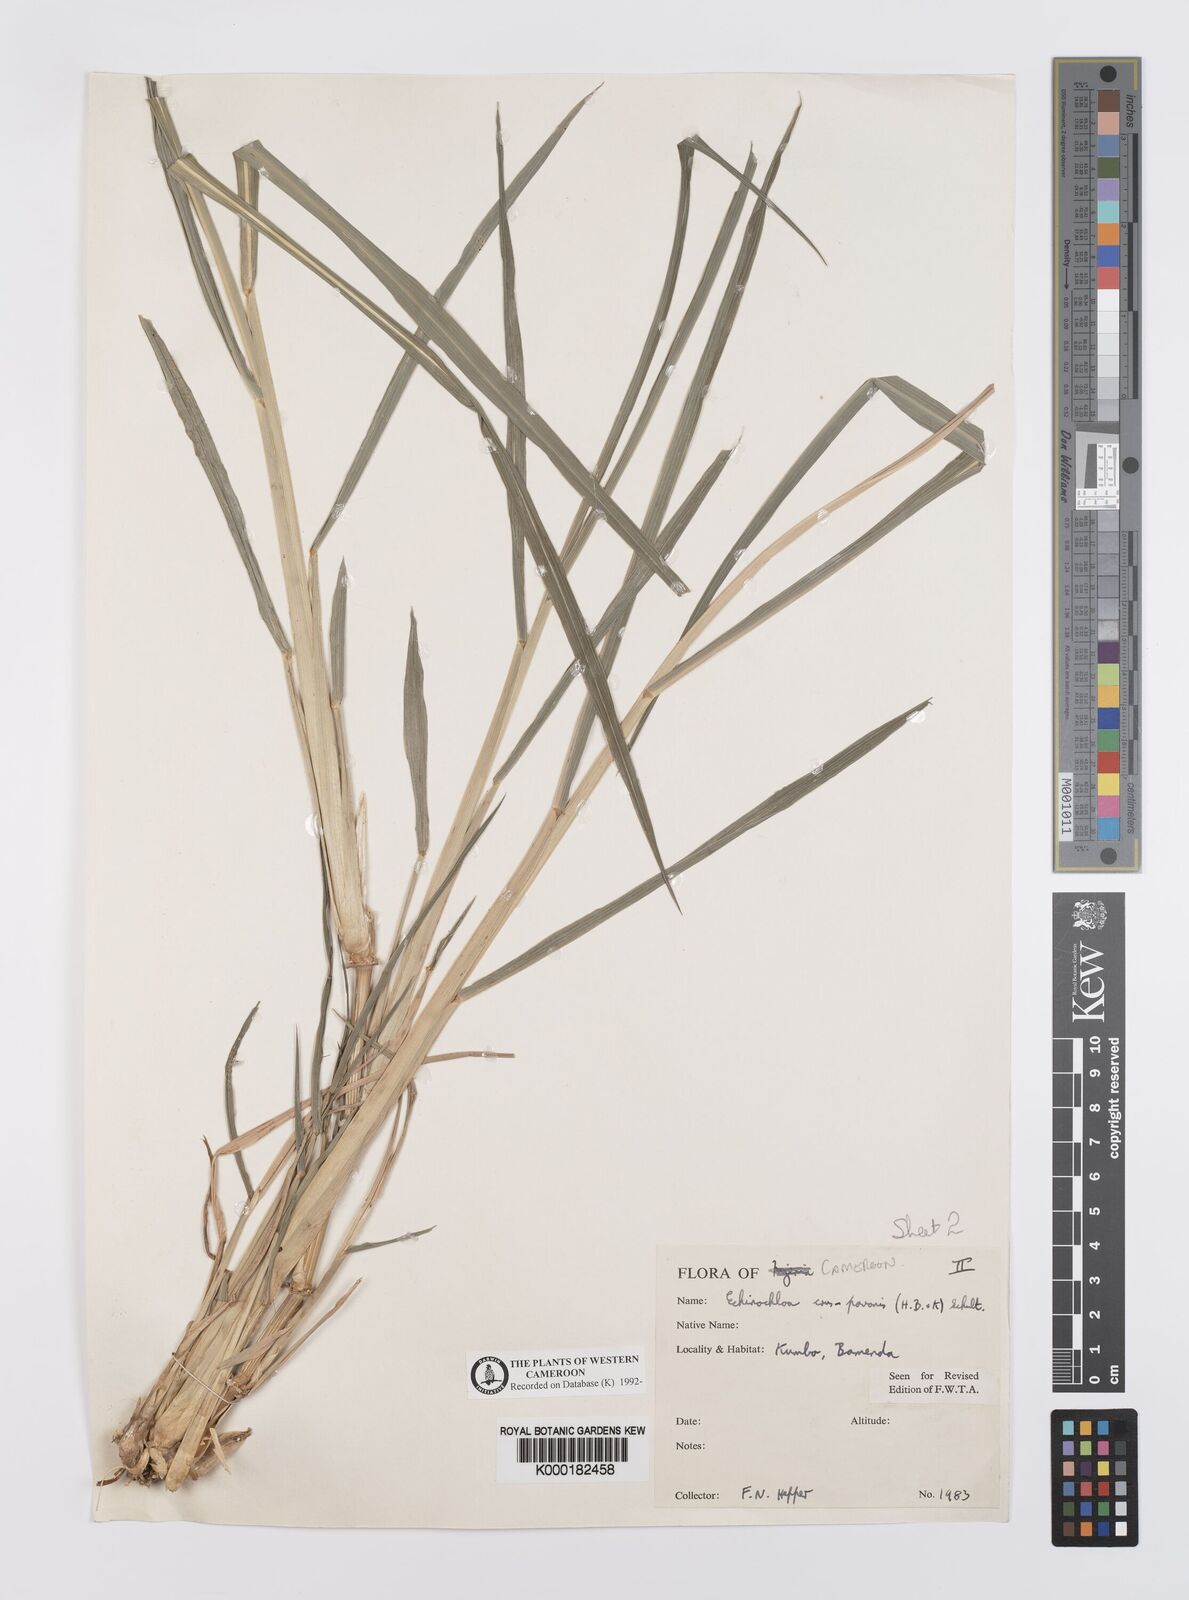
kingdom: Plantae
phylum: Tracheophyta
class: Liliopsida
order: Poales
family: Poaceae
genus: Echinochloa
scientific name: Echinochloa crus-pavonis
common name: Gulf cockspur grass
